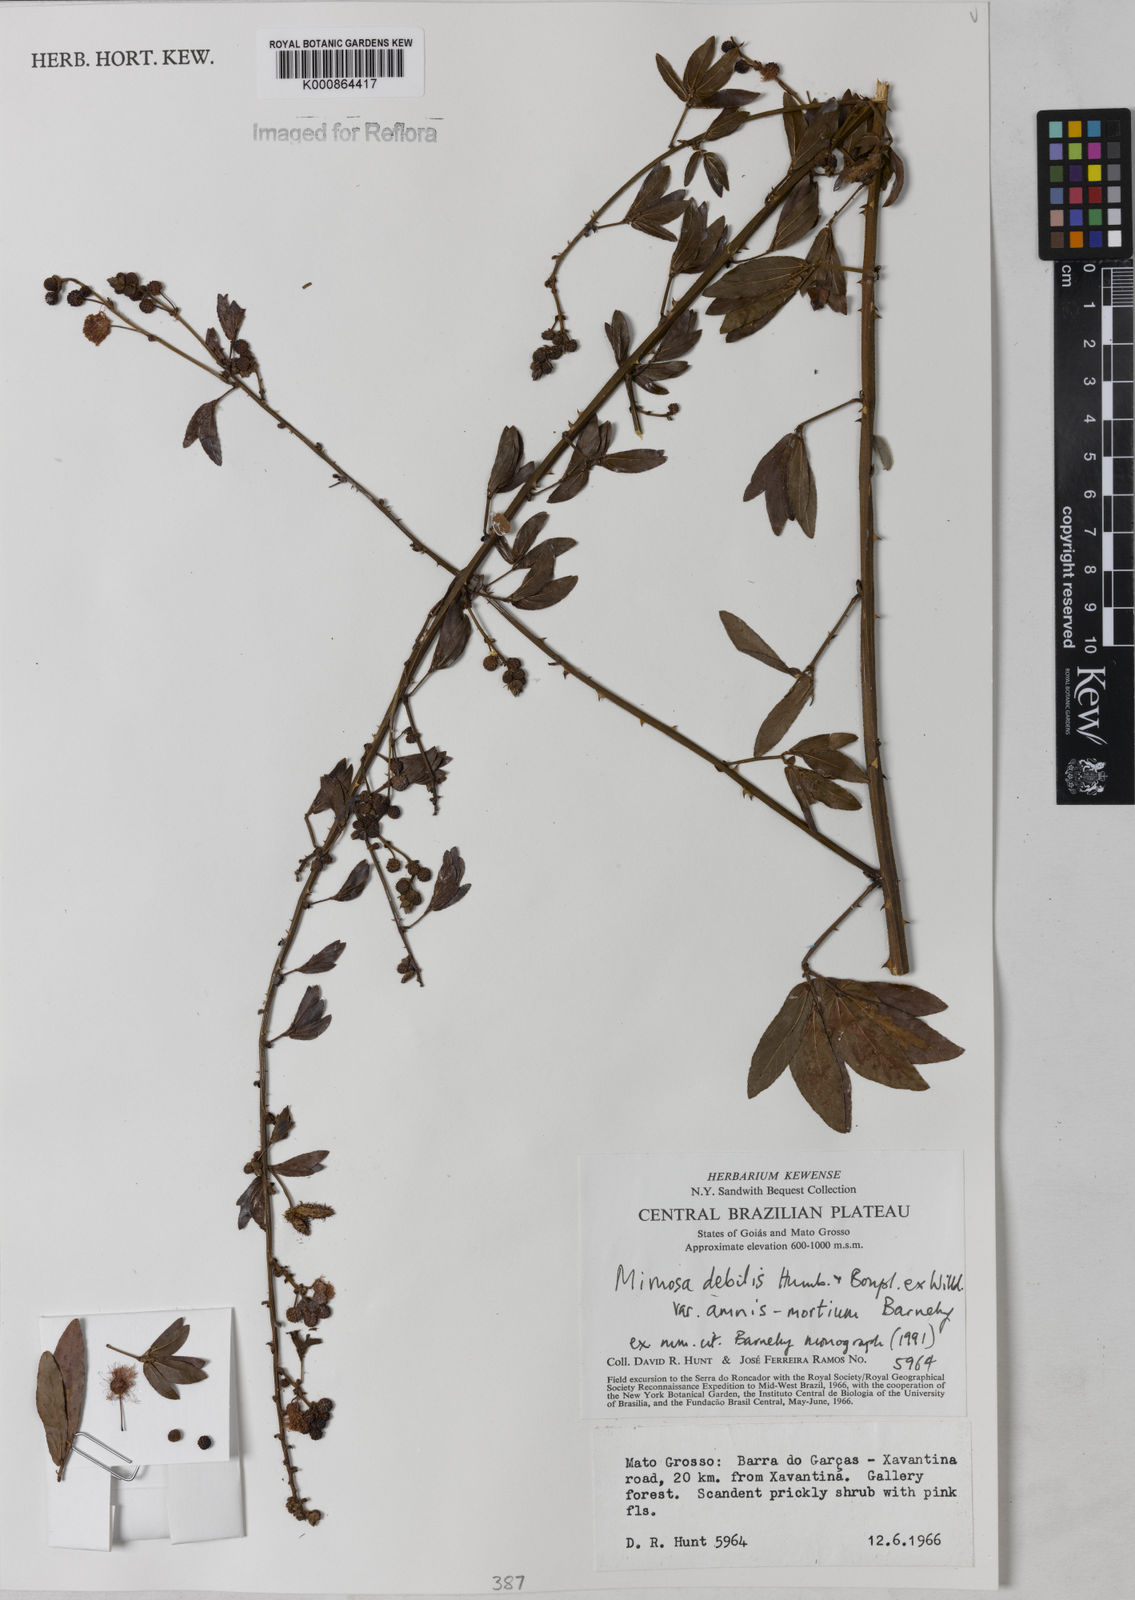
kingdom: Plantae
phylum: Tracheophyta
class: Magnoliopsida
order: Fabales
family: Fabaceae
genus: Mimosa
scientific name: Mimosa debilis
